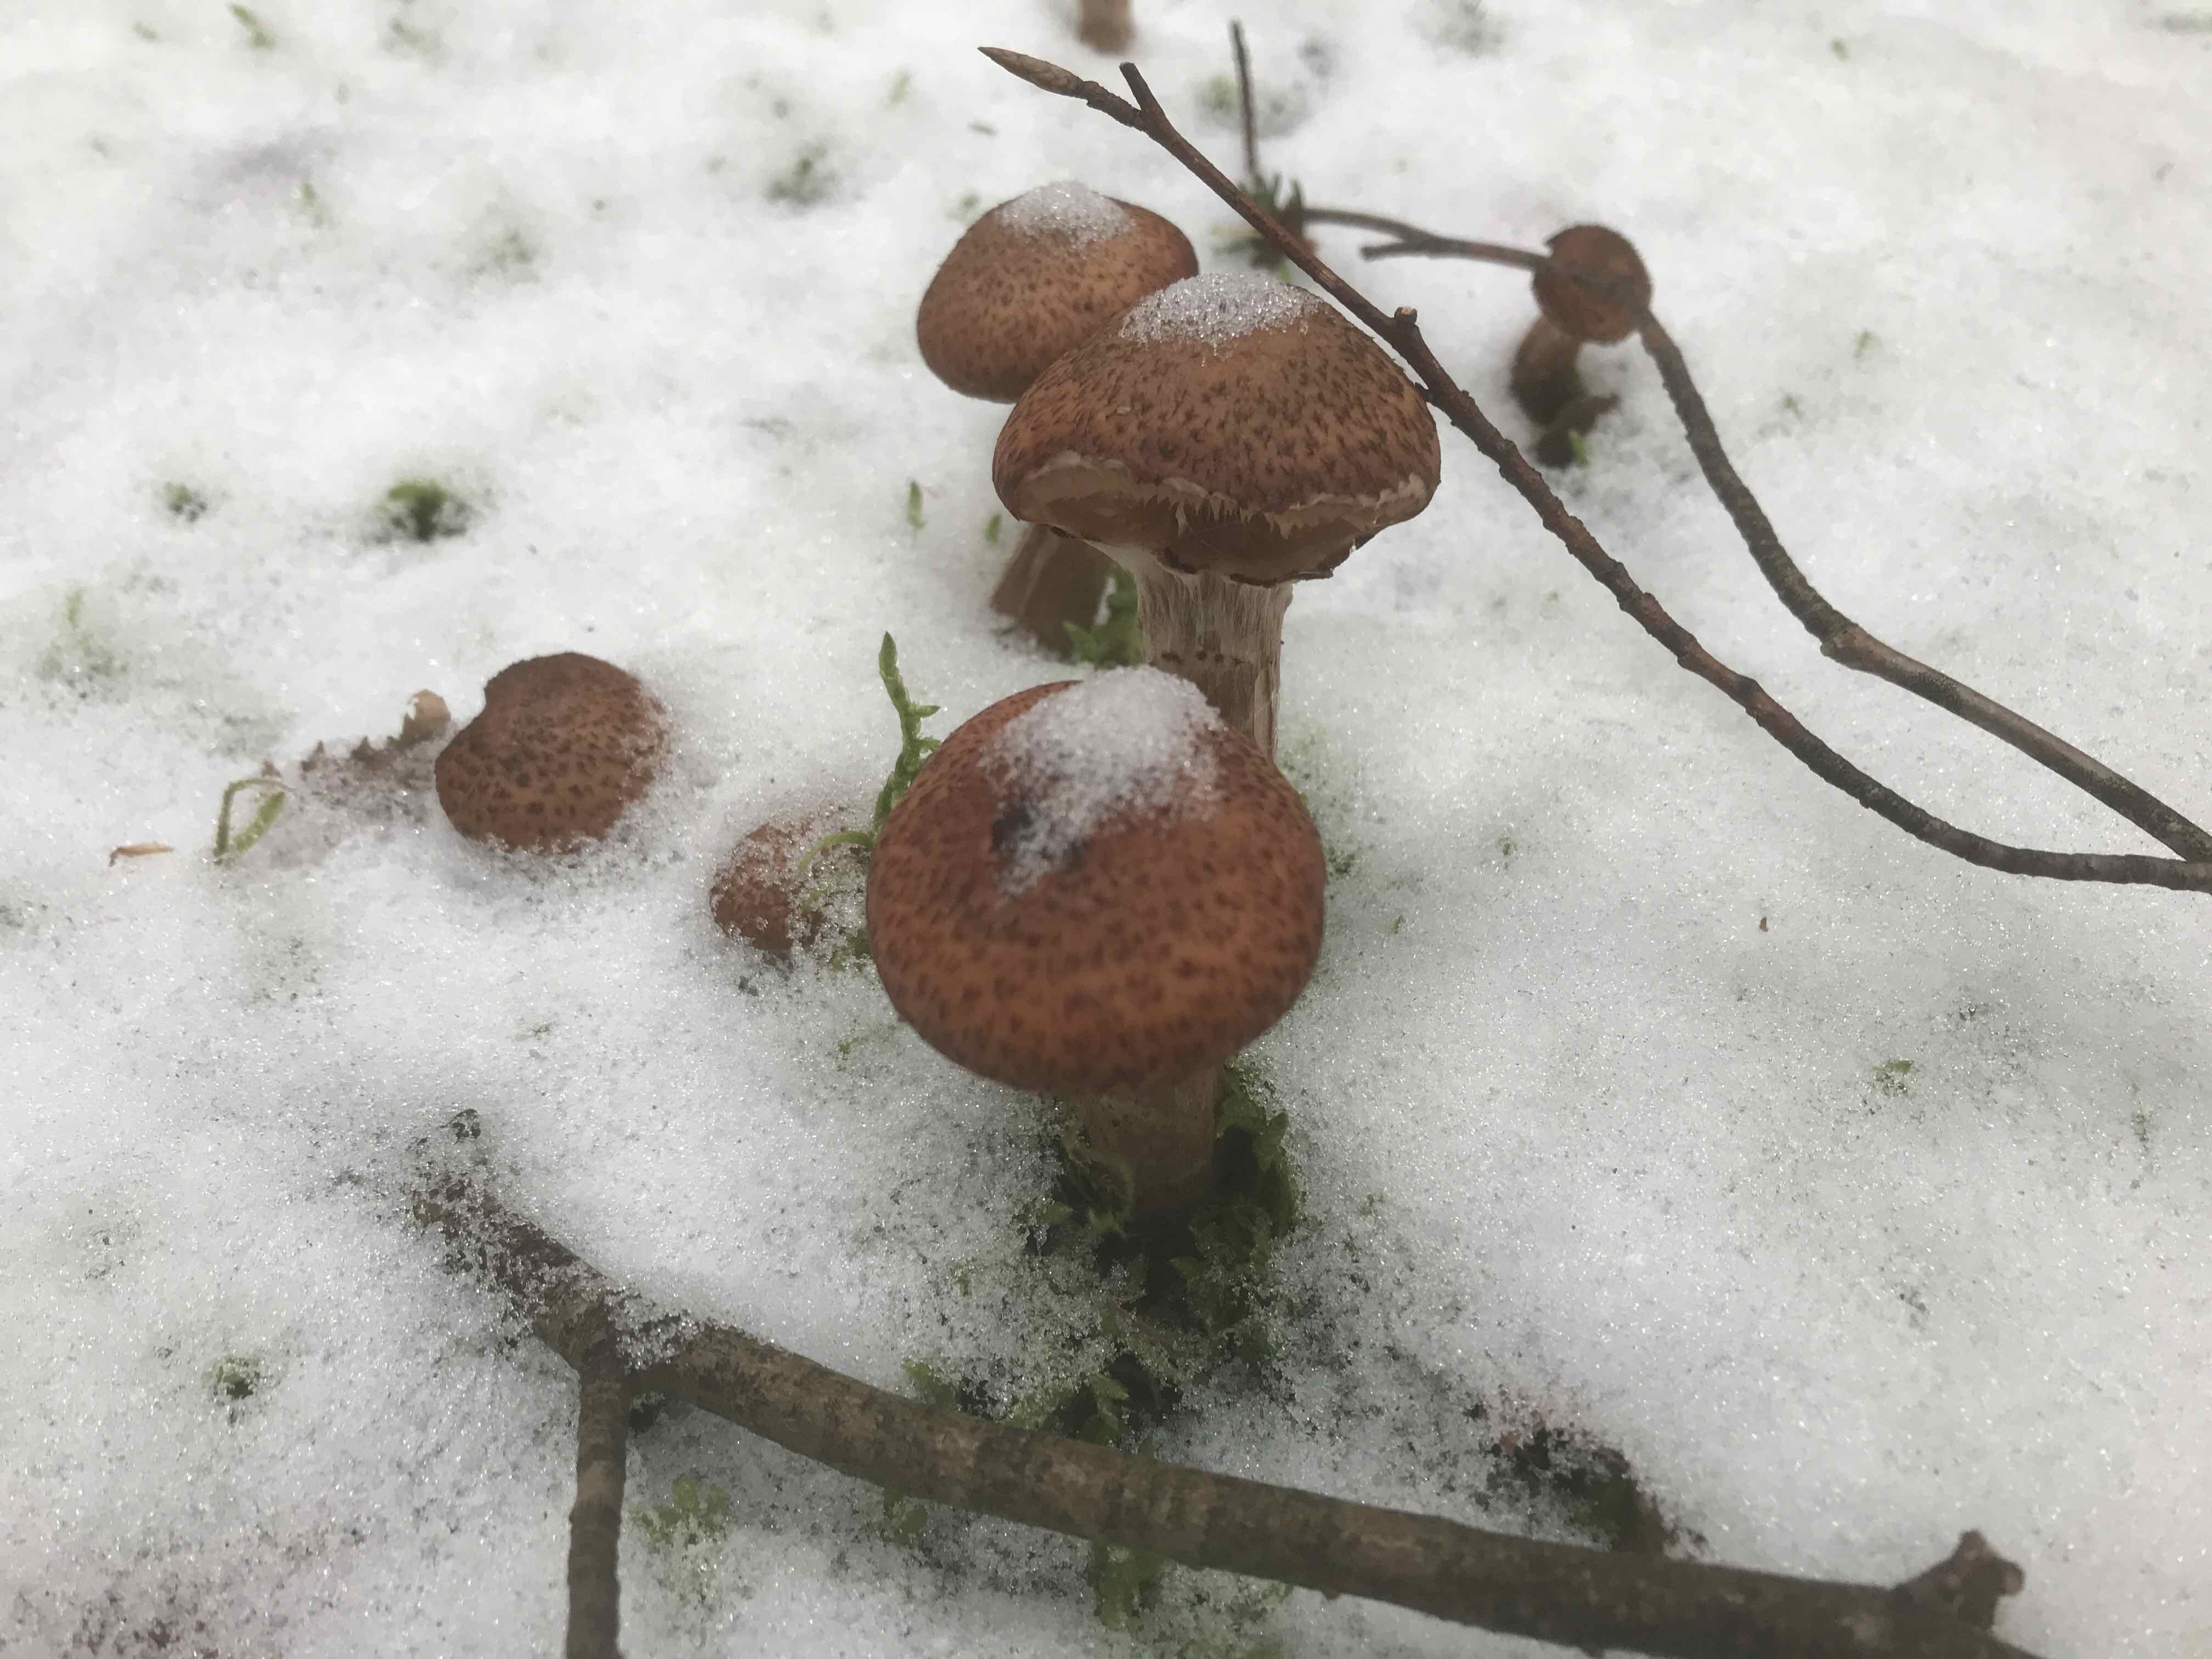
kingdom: Fungi
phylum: Basidiomycota
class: Agaricomycetes
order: Agaricales
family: Physalacriaceae
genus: Armillaria
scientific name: Armillaria ostoyae
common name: mørk honningsvamp
